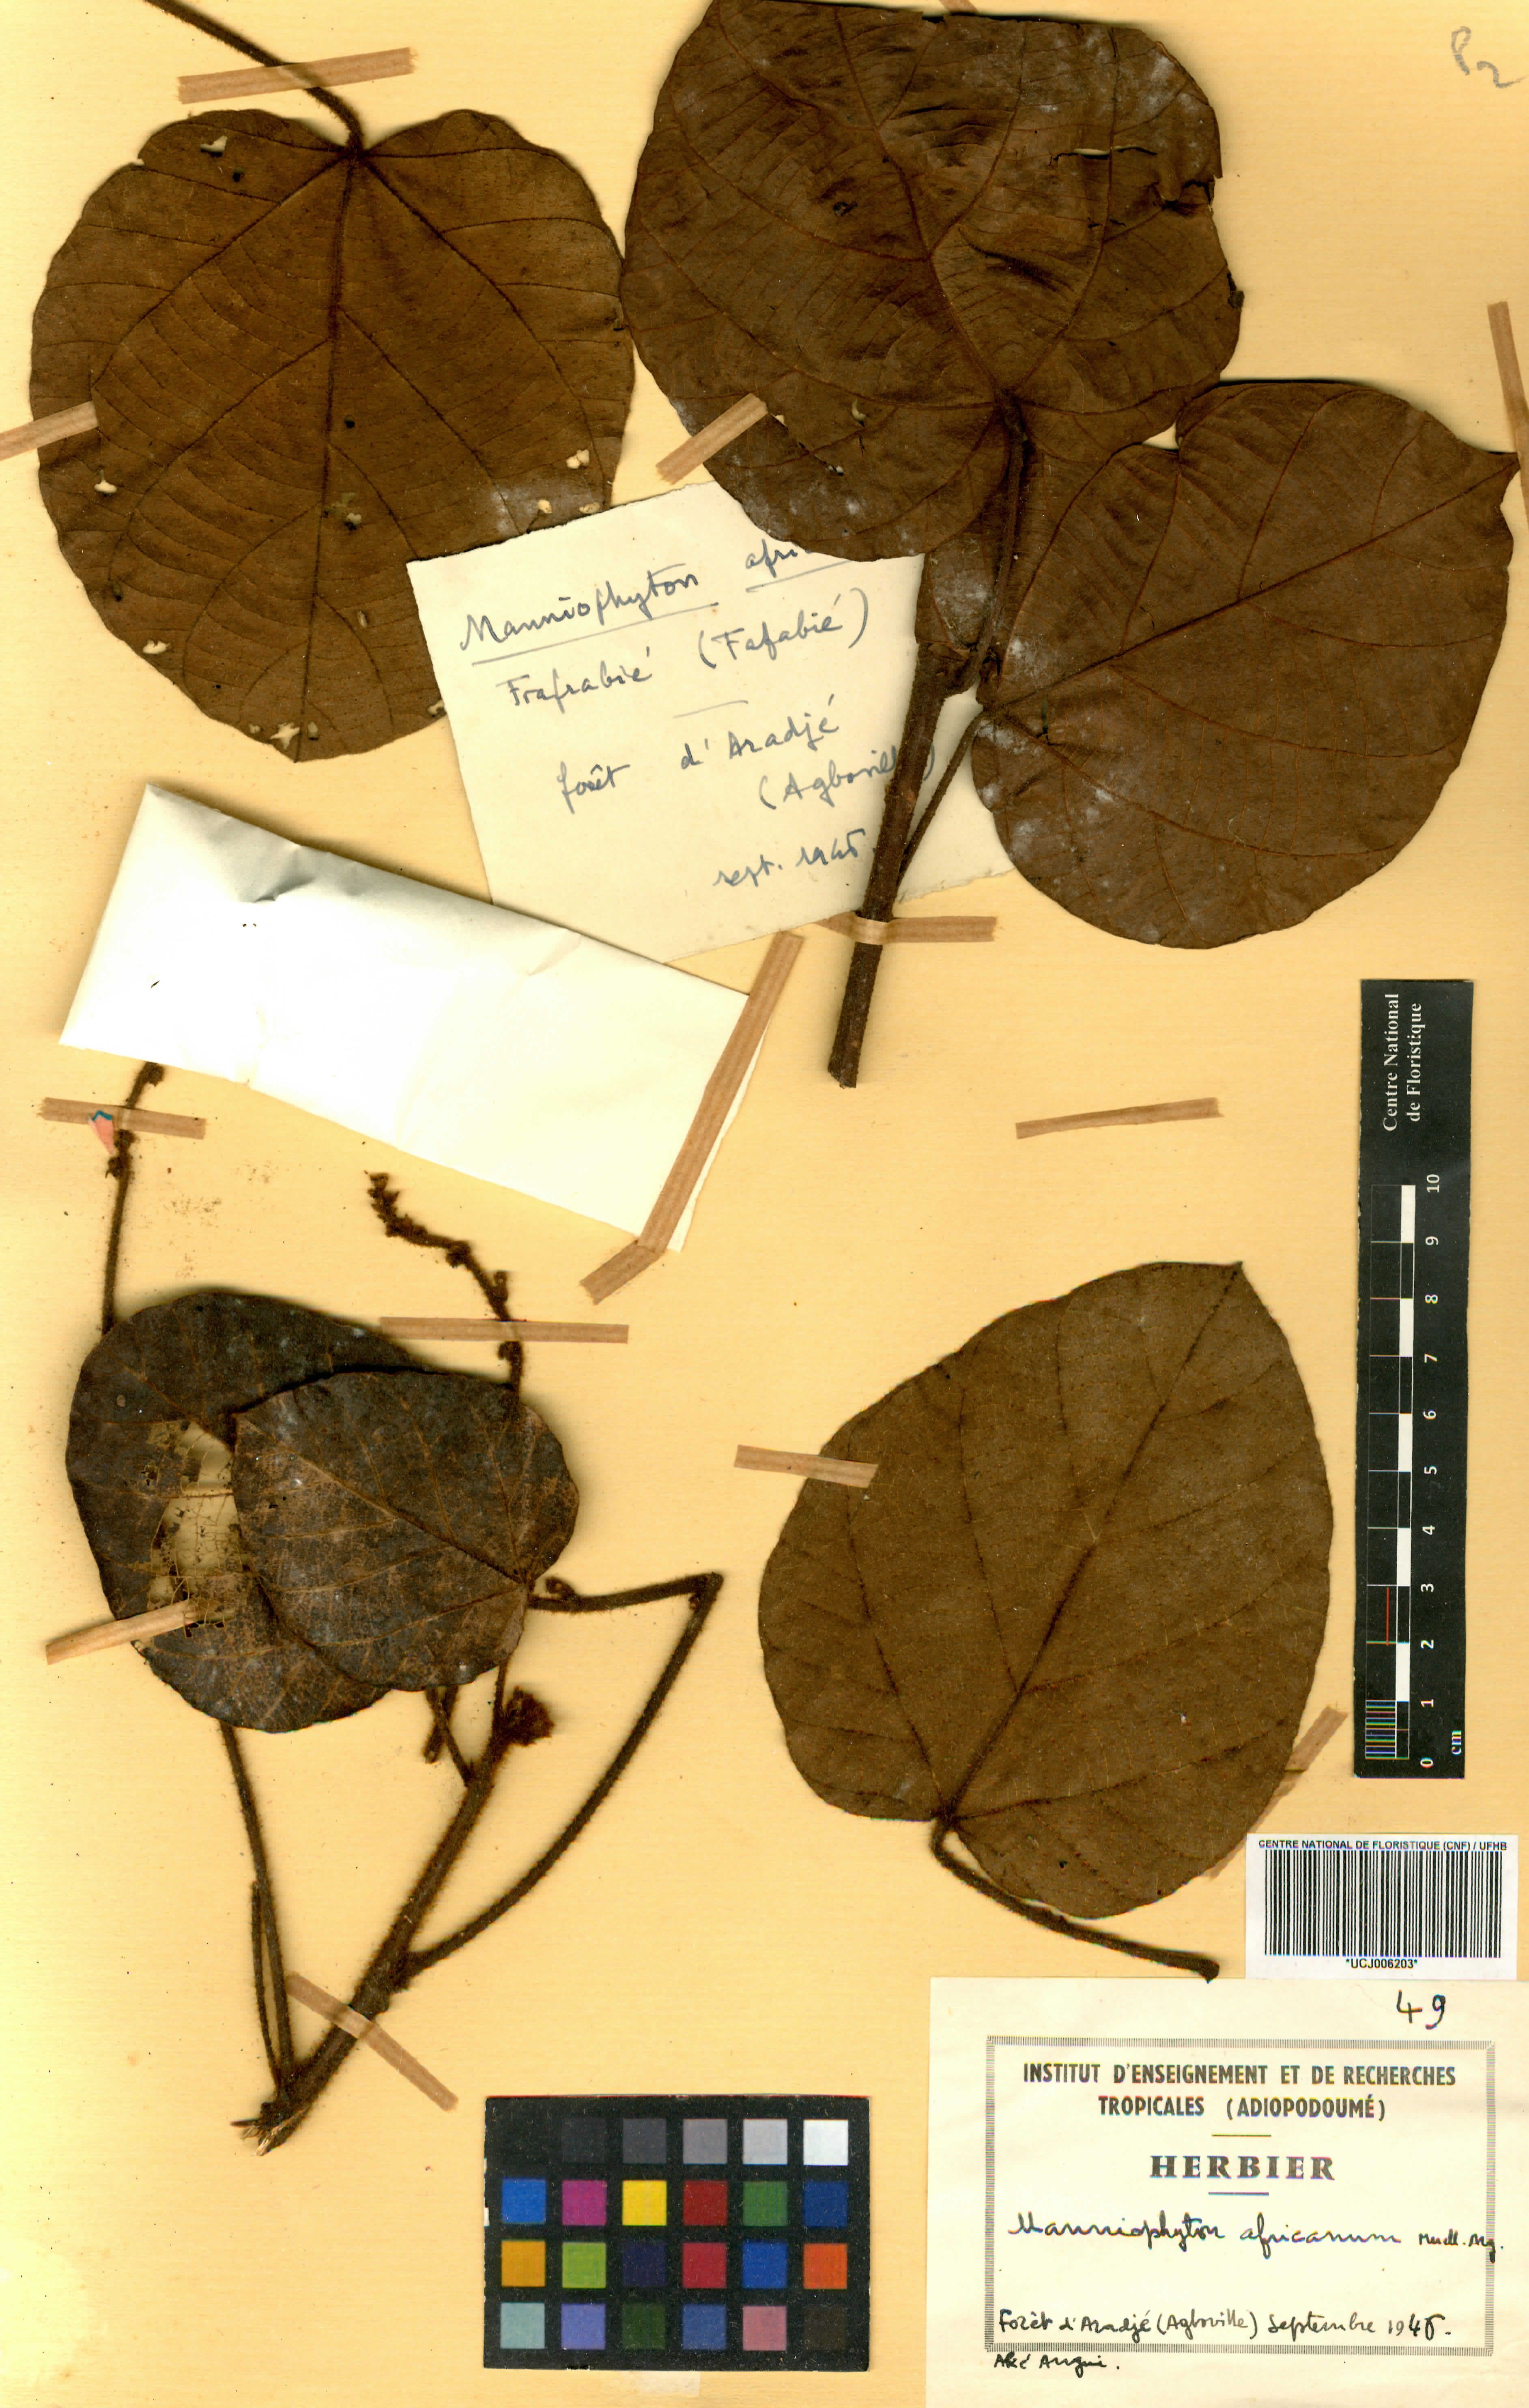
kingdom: Plantae
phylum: Tracheophyta
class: Magnoliopsida
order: Malpighiales
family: Euphorbiaceae
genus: Manniophyton
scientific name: Manniophyton fulvum
